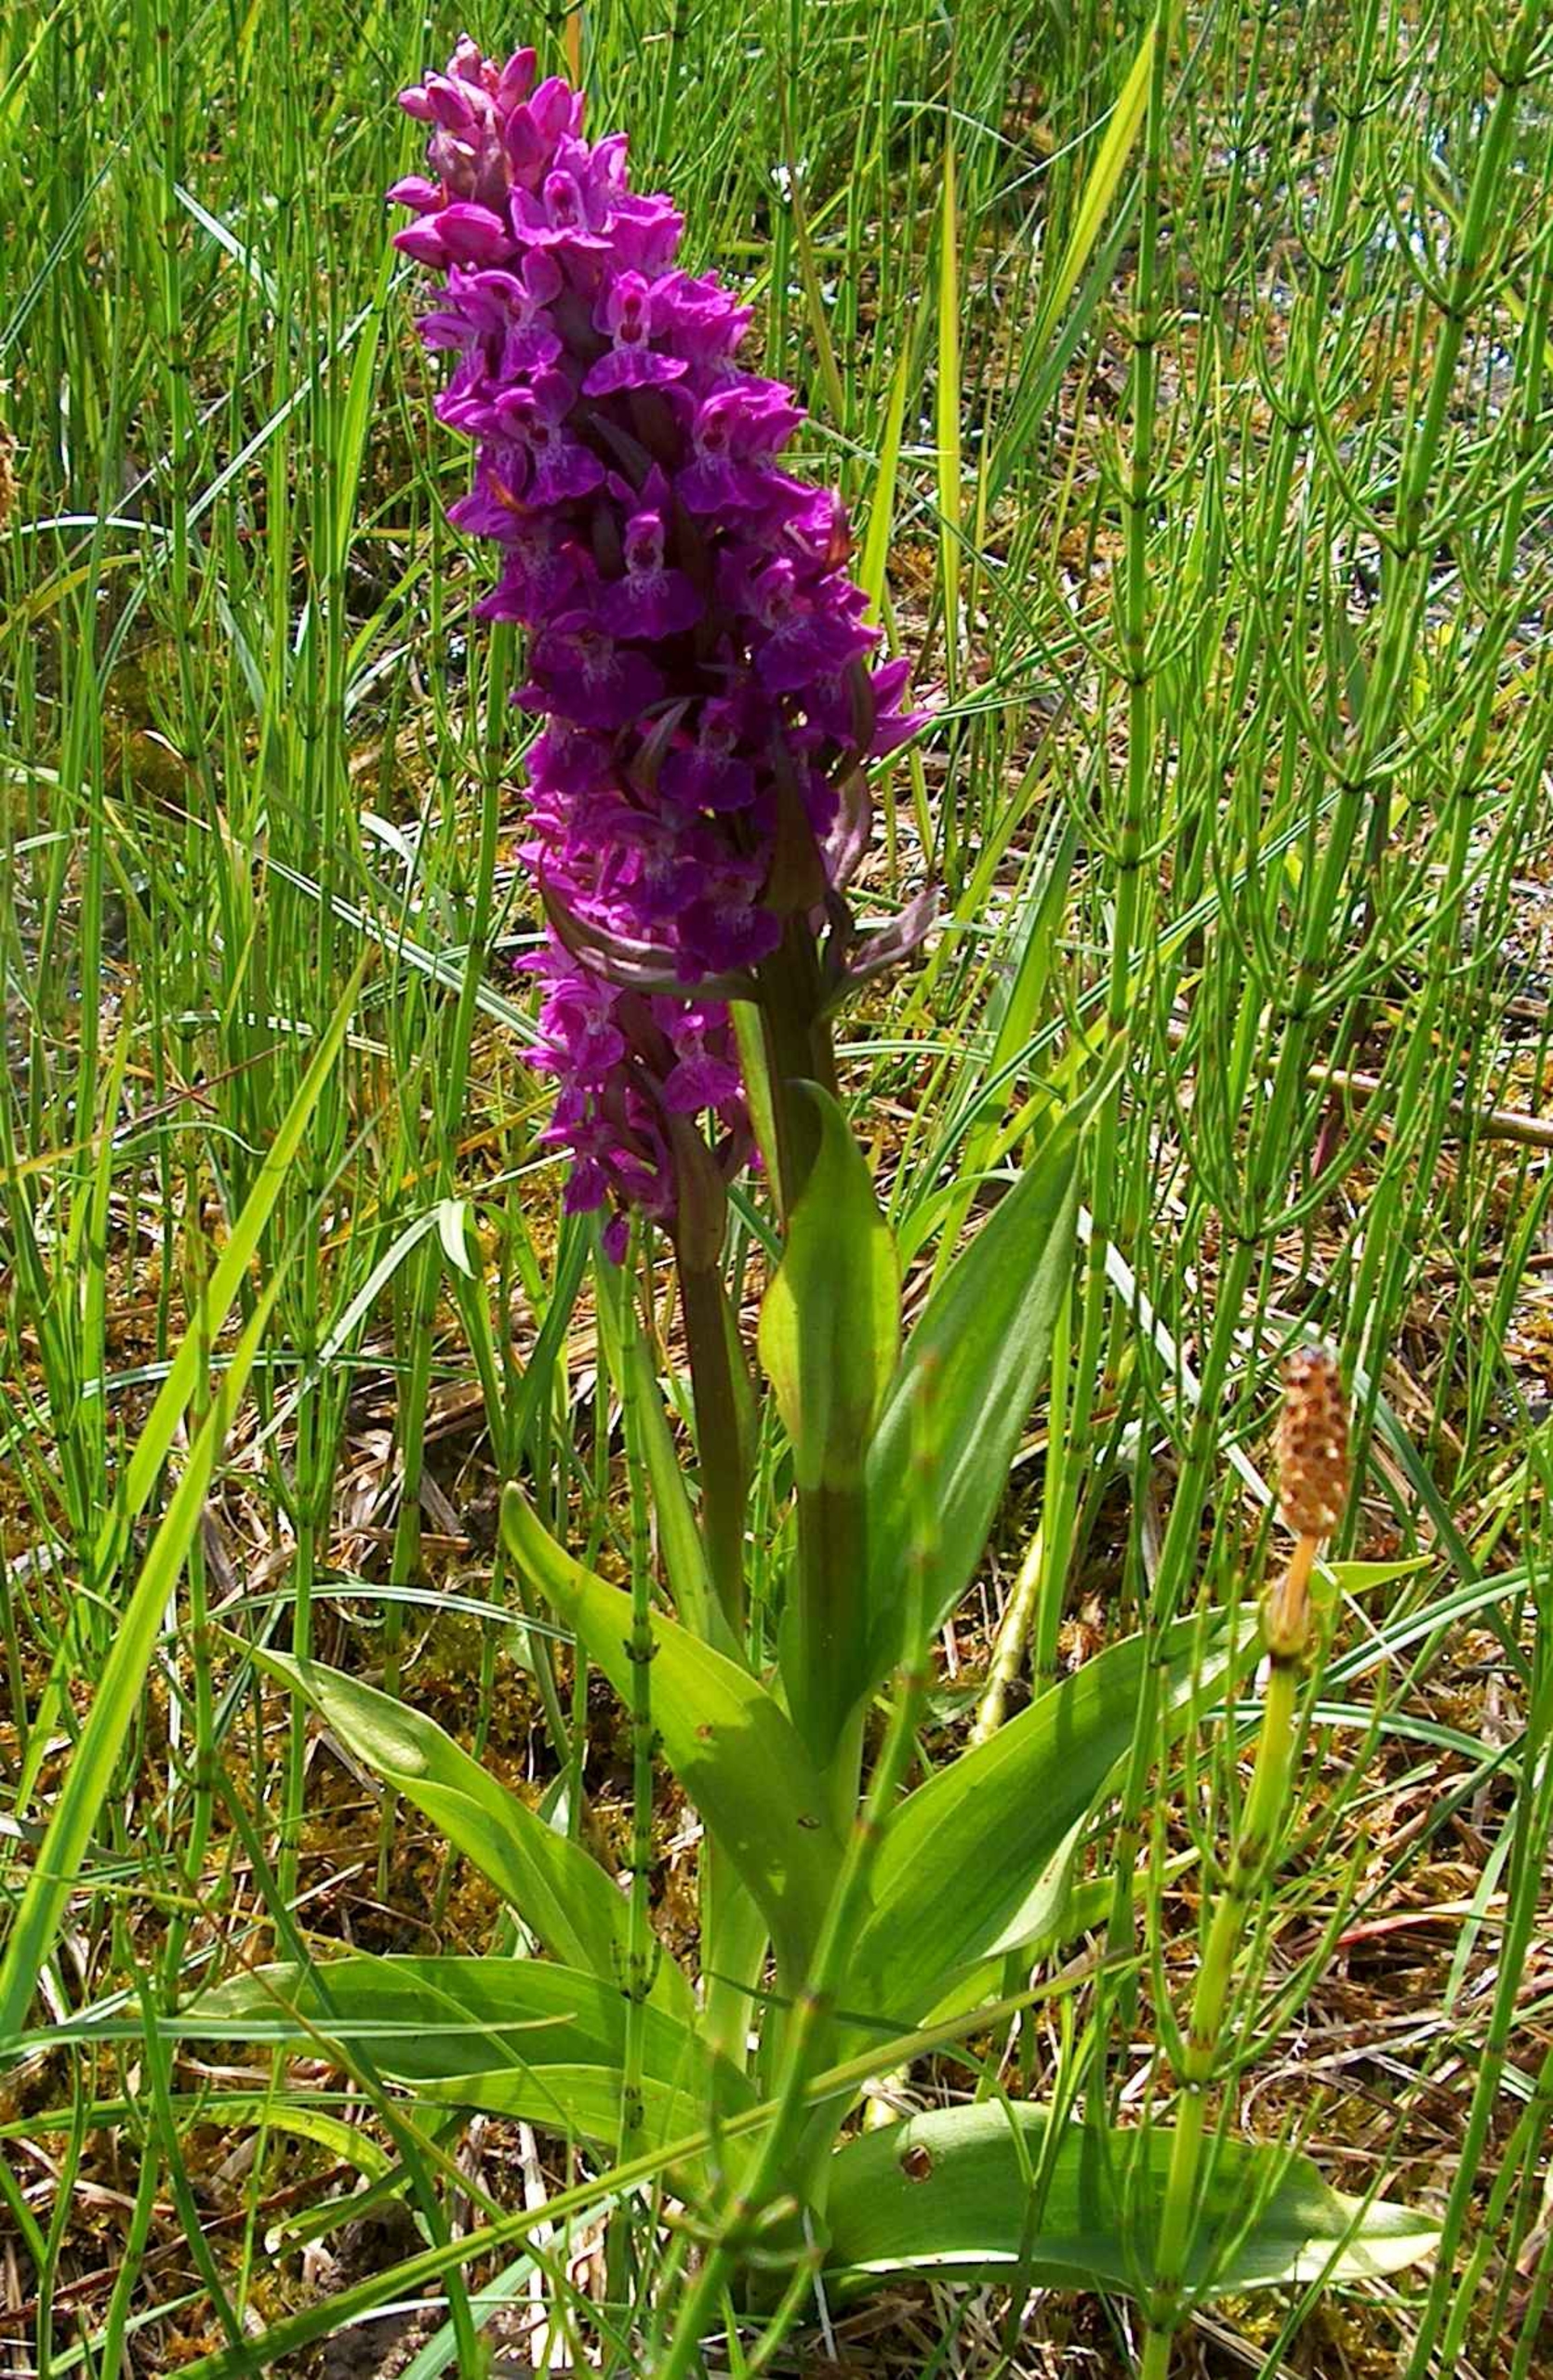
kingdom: Plantae
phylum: Tracheophyta
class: Liliopsida
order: Asparagales
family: Orchidaceae
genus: Dactylorhiza
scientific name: Dactylorhiza majalis
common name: Maj-gøgeurt
